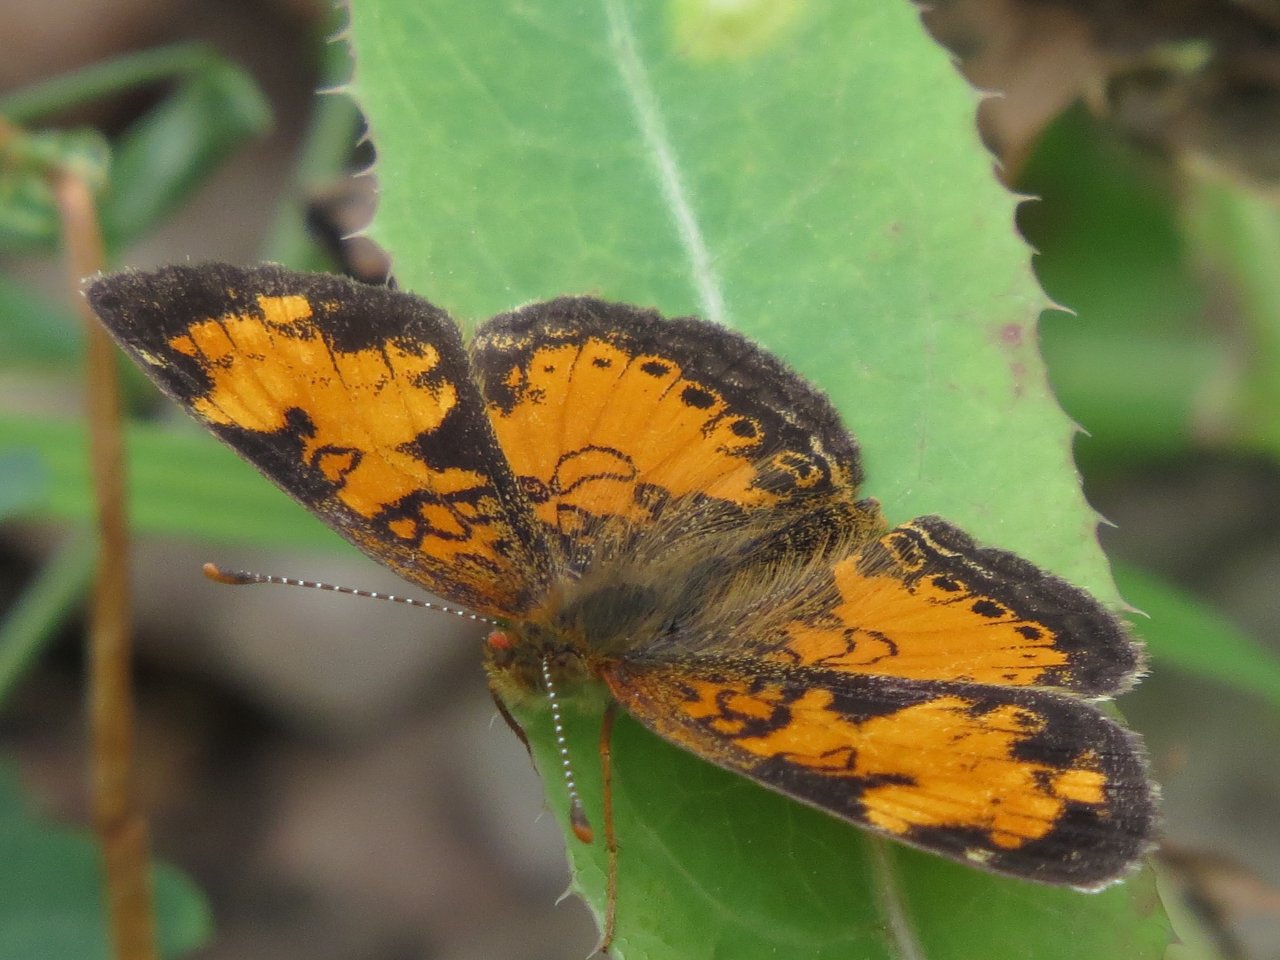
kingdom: Animalia
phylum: Arthropoda
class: Insecta
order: Lepidoptera
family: Nymphalidae
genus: Phyciodes
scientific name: Phyciodes tharos
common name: Northern Crescent
